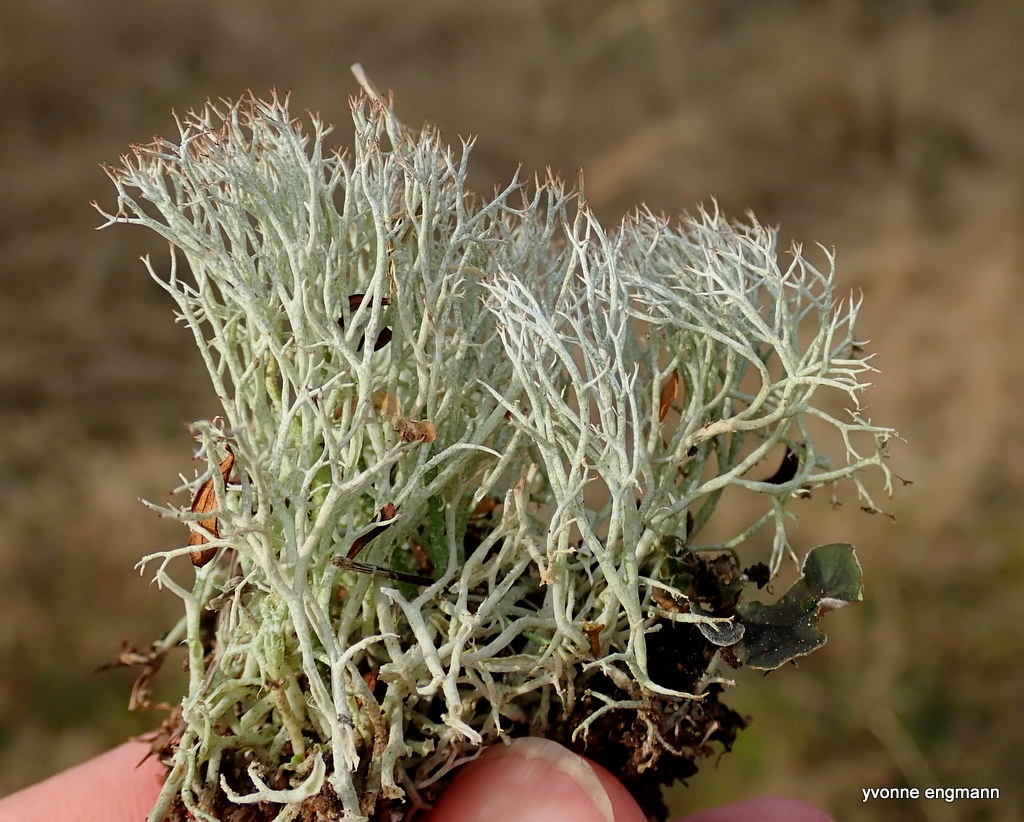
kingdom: Fungi
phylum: Ascomycota
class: Lecanoromycetes
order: Lecanorales
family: Cladoniaceae
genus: Cladonia
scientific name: Cladonia rangiformis
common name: spættet bægerlav
